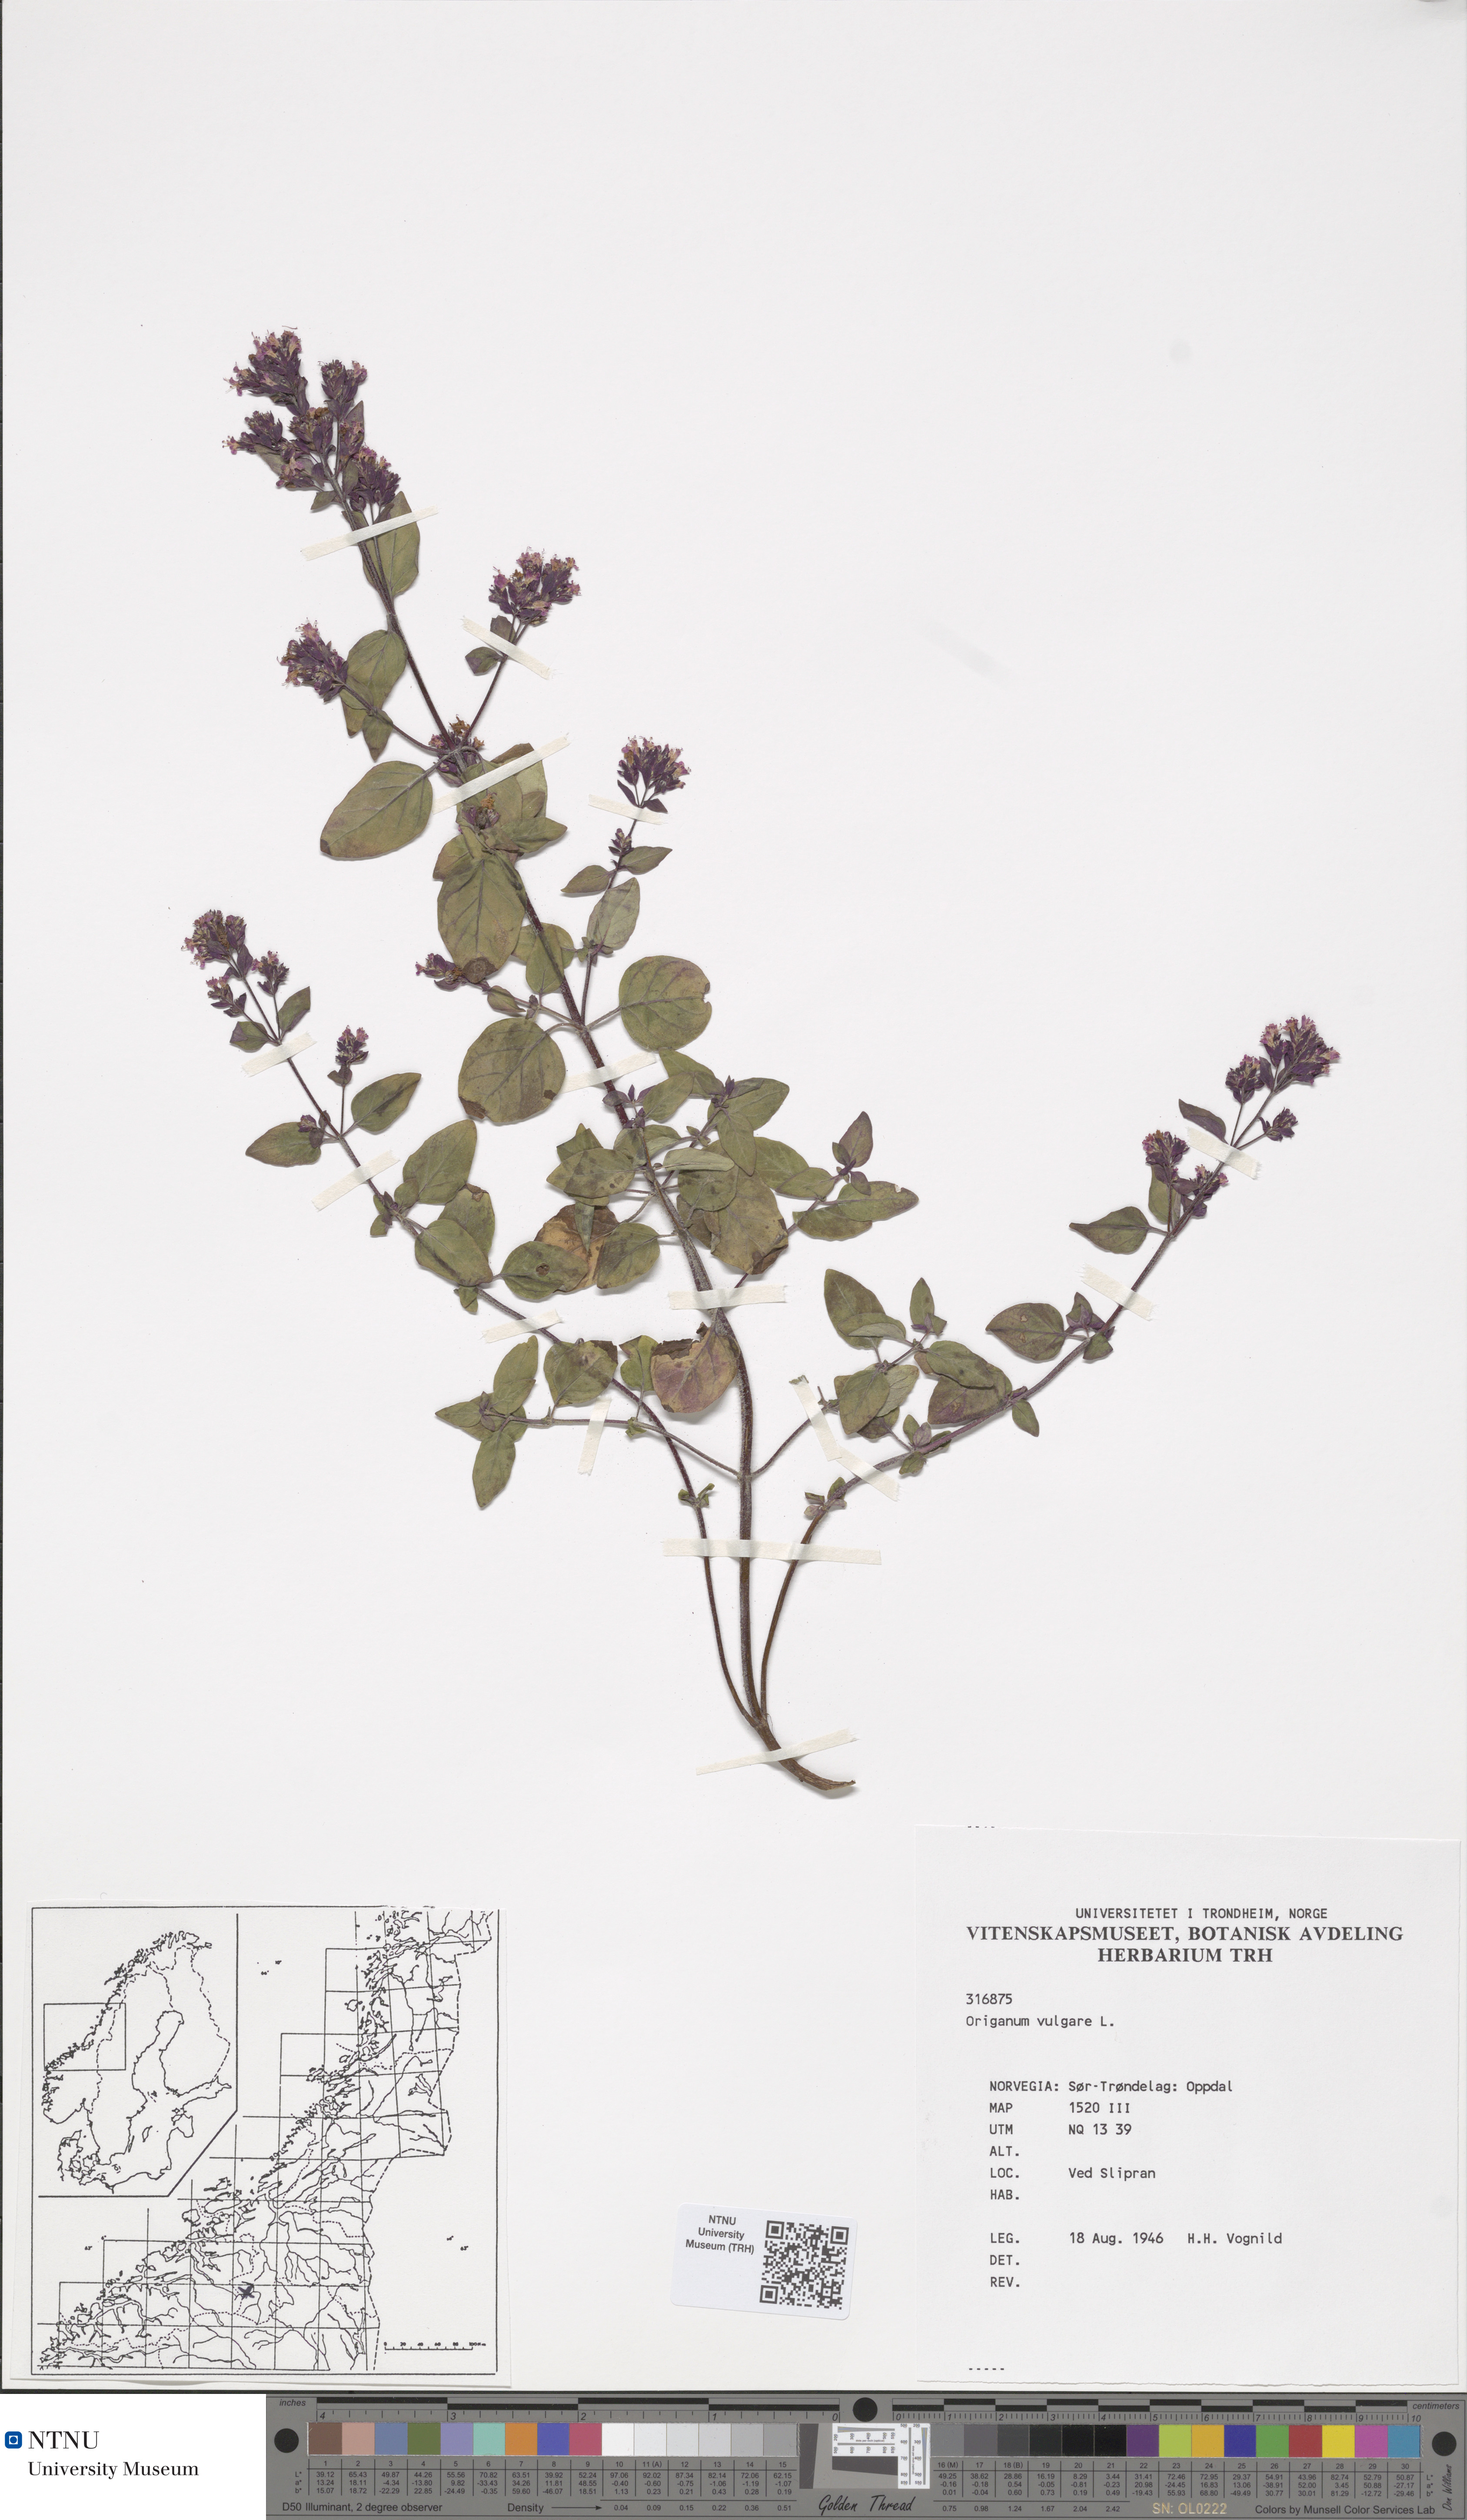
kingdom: Plantae
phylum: Tracheophyta
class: Magnoliopsida
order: Lamiales
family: Lamiaceae
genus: Origanum
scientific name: Origanum vulgare
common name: Wild marjoram
